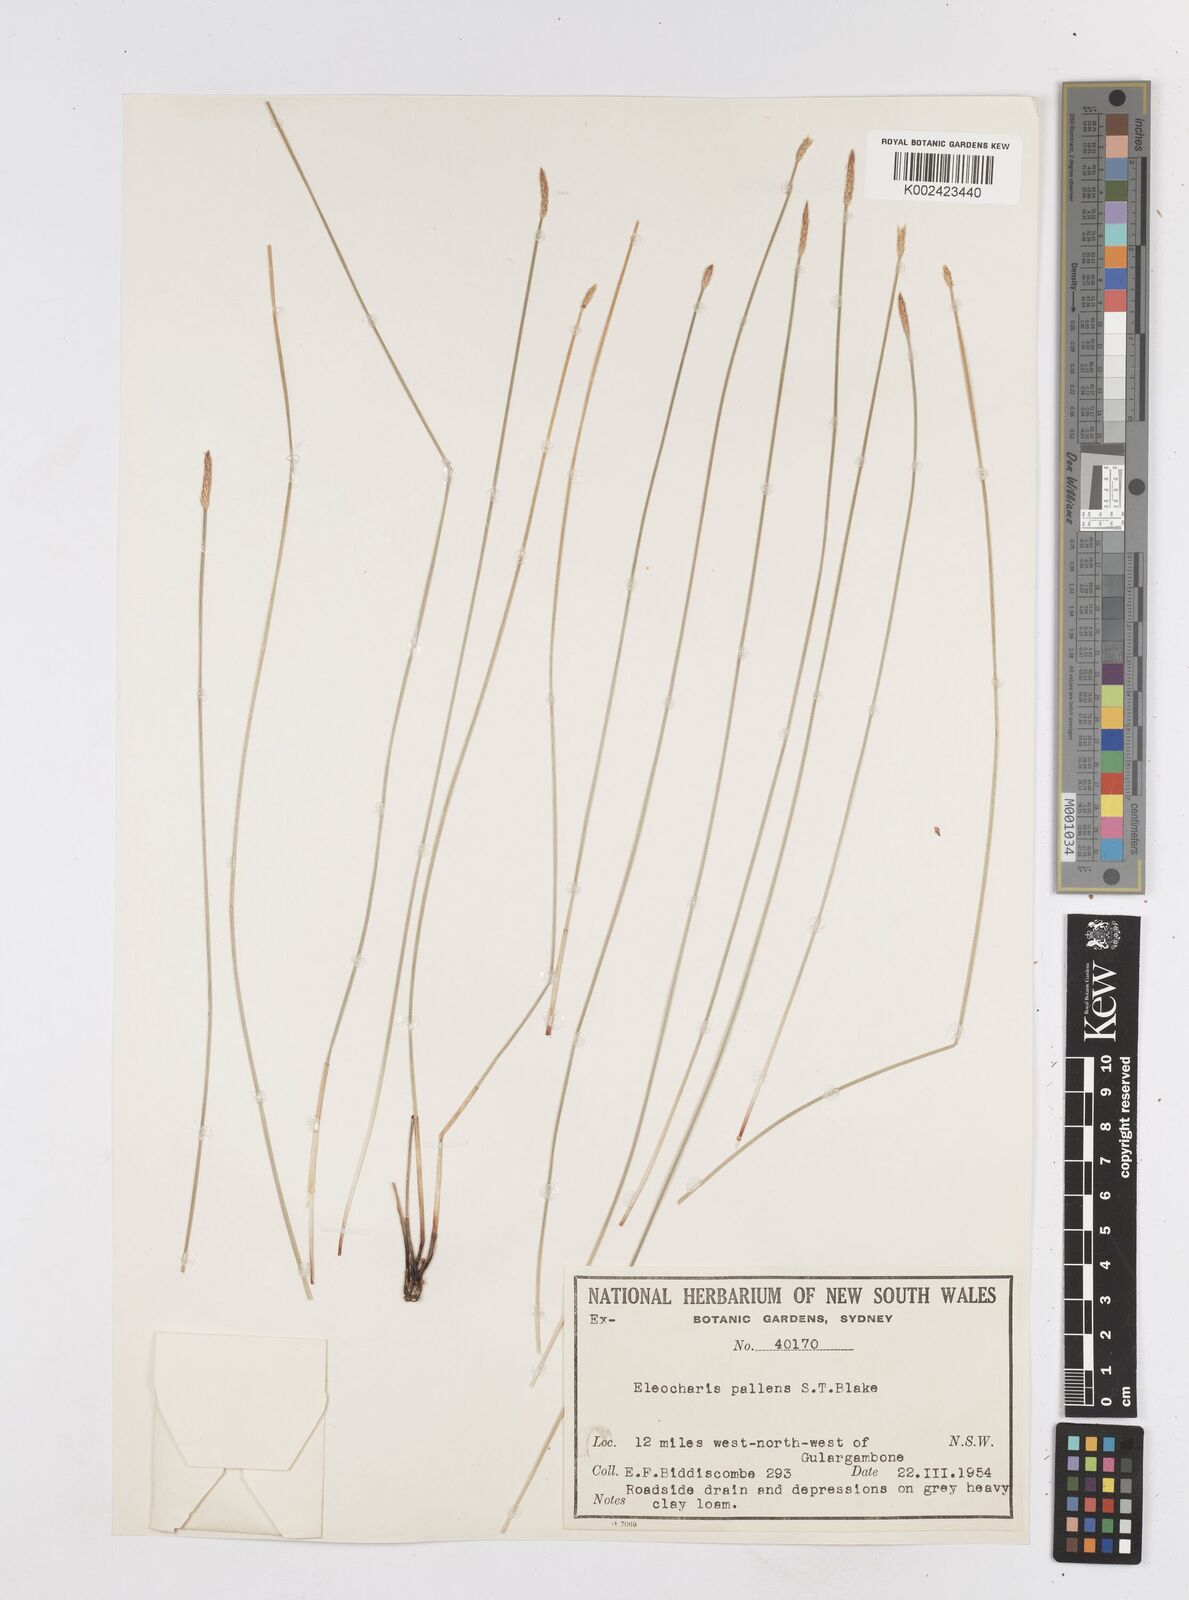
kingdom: Plantae
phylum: Tracheophyta
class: Liliopsida
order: Poales
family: Cyperaceae
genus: Eleocharis
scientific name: Eleocharis acuta
